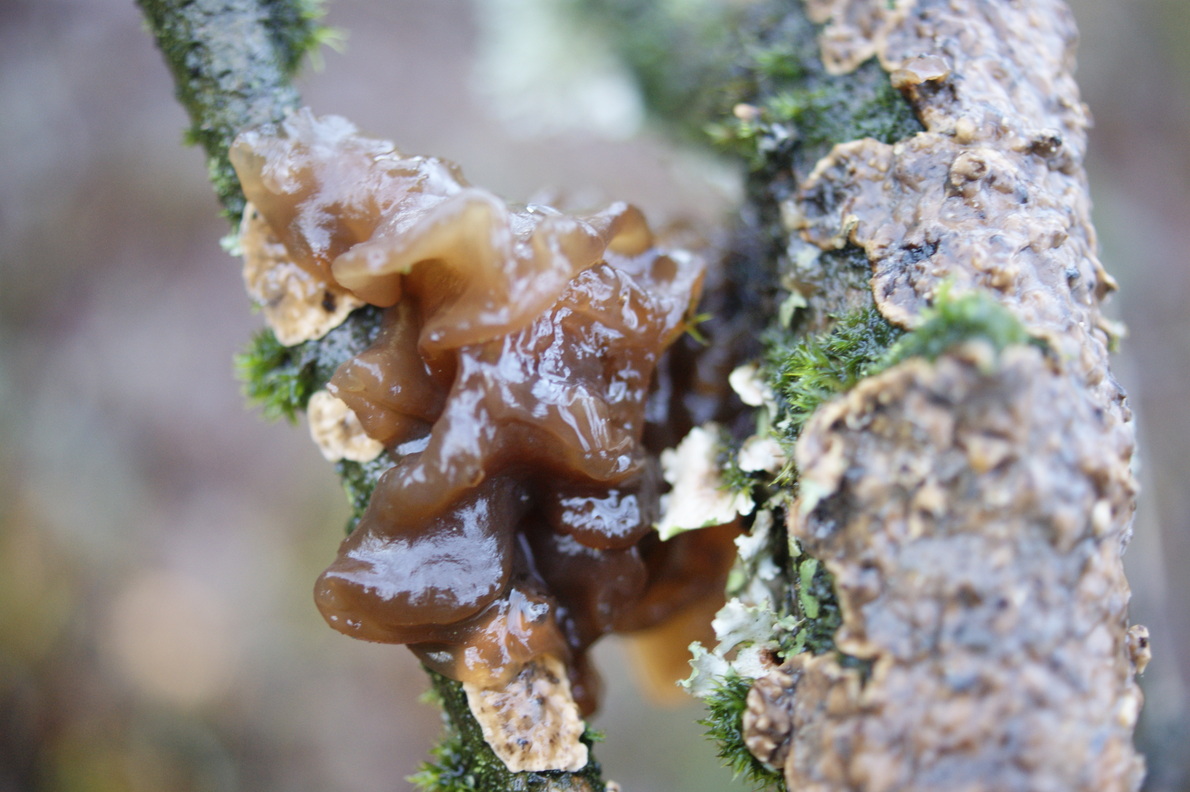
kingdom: Fungi
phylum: Basidiomycota
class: Tremellomycetes
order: Tremellales
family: Tremellaceae
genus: Phaeotremella
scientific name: Phaeotremella frondosa
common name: kæmpe-bævresvamp
